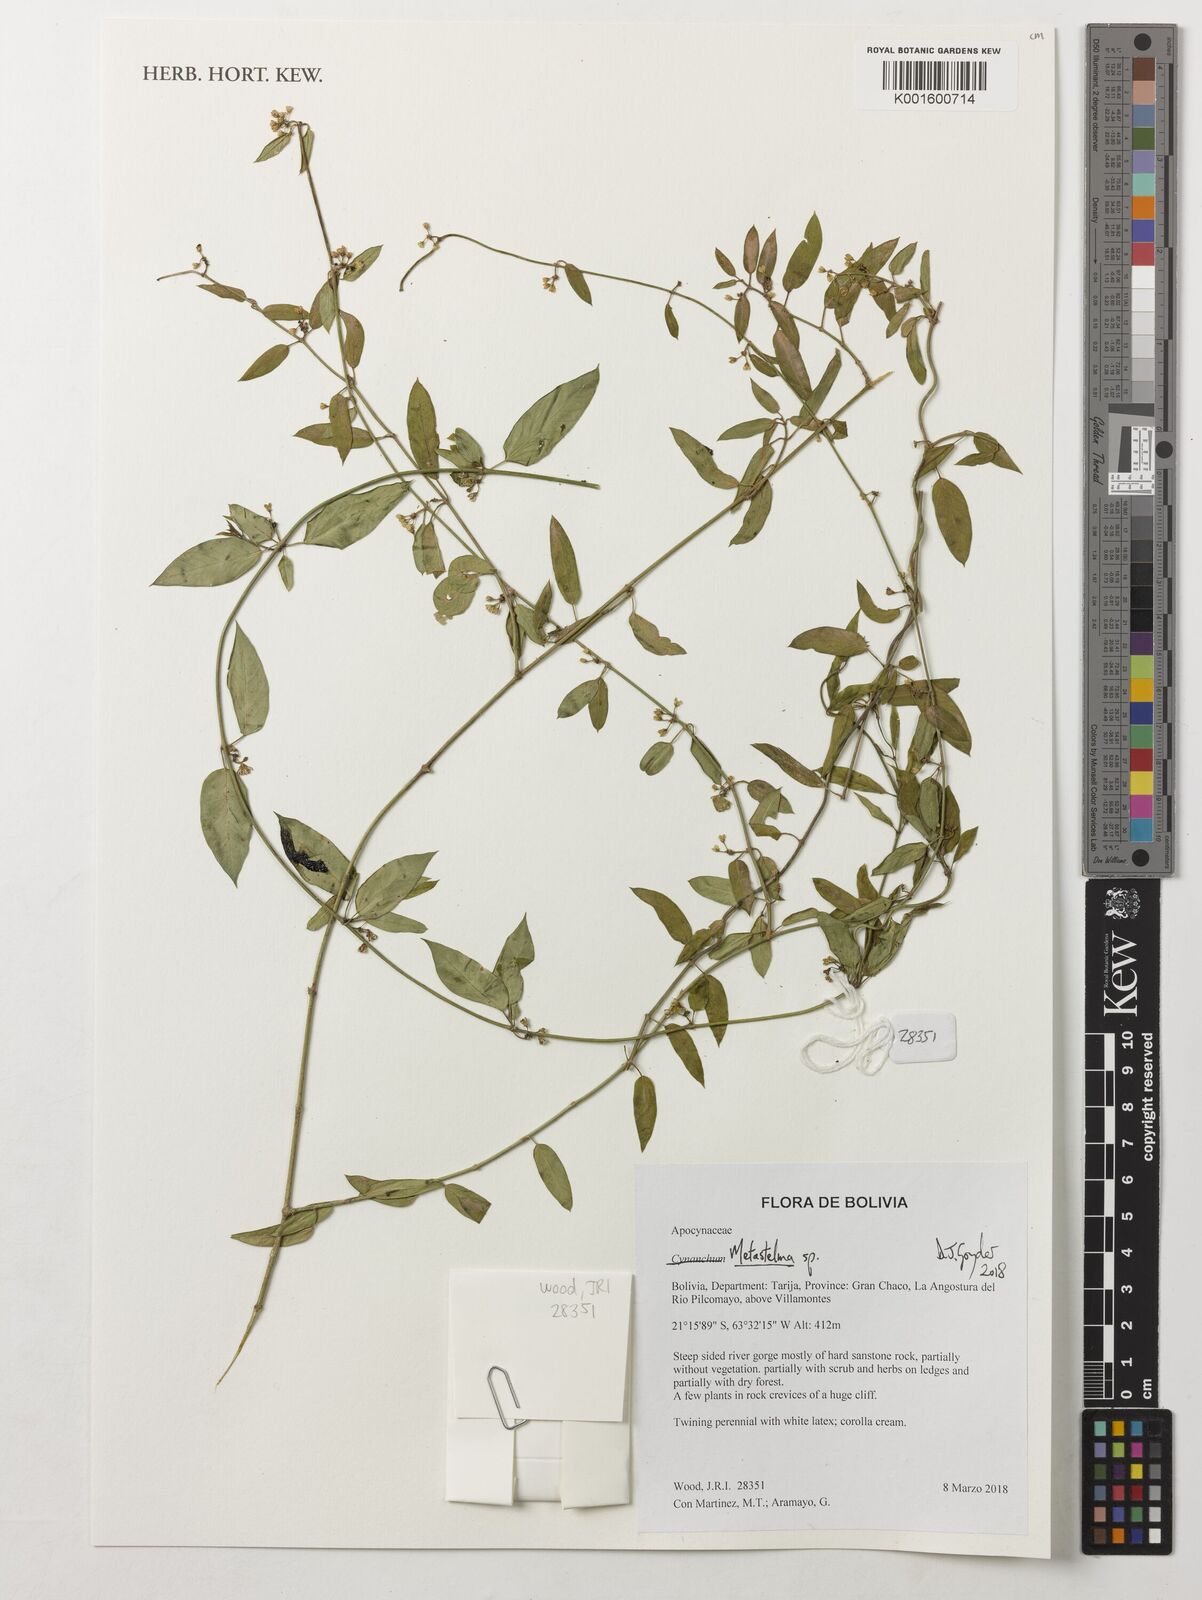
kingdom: Plantae
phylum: Tracheophyta
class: Magnoliopsida
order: Gentianales
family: Apocynaceae
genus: Metastelma
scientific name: Metastelma
